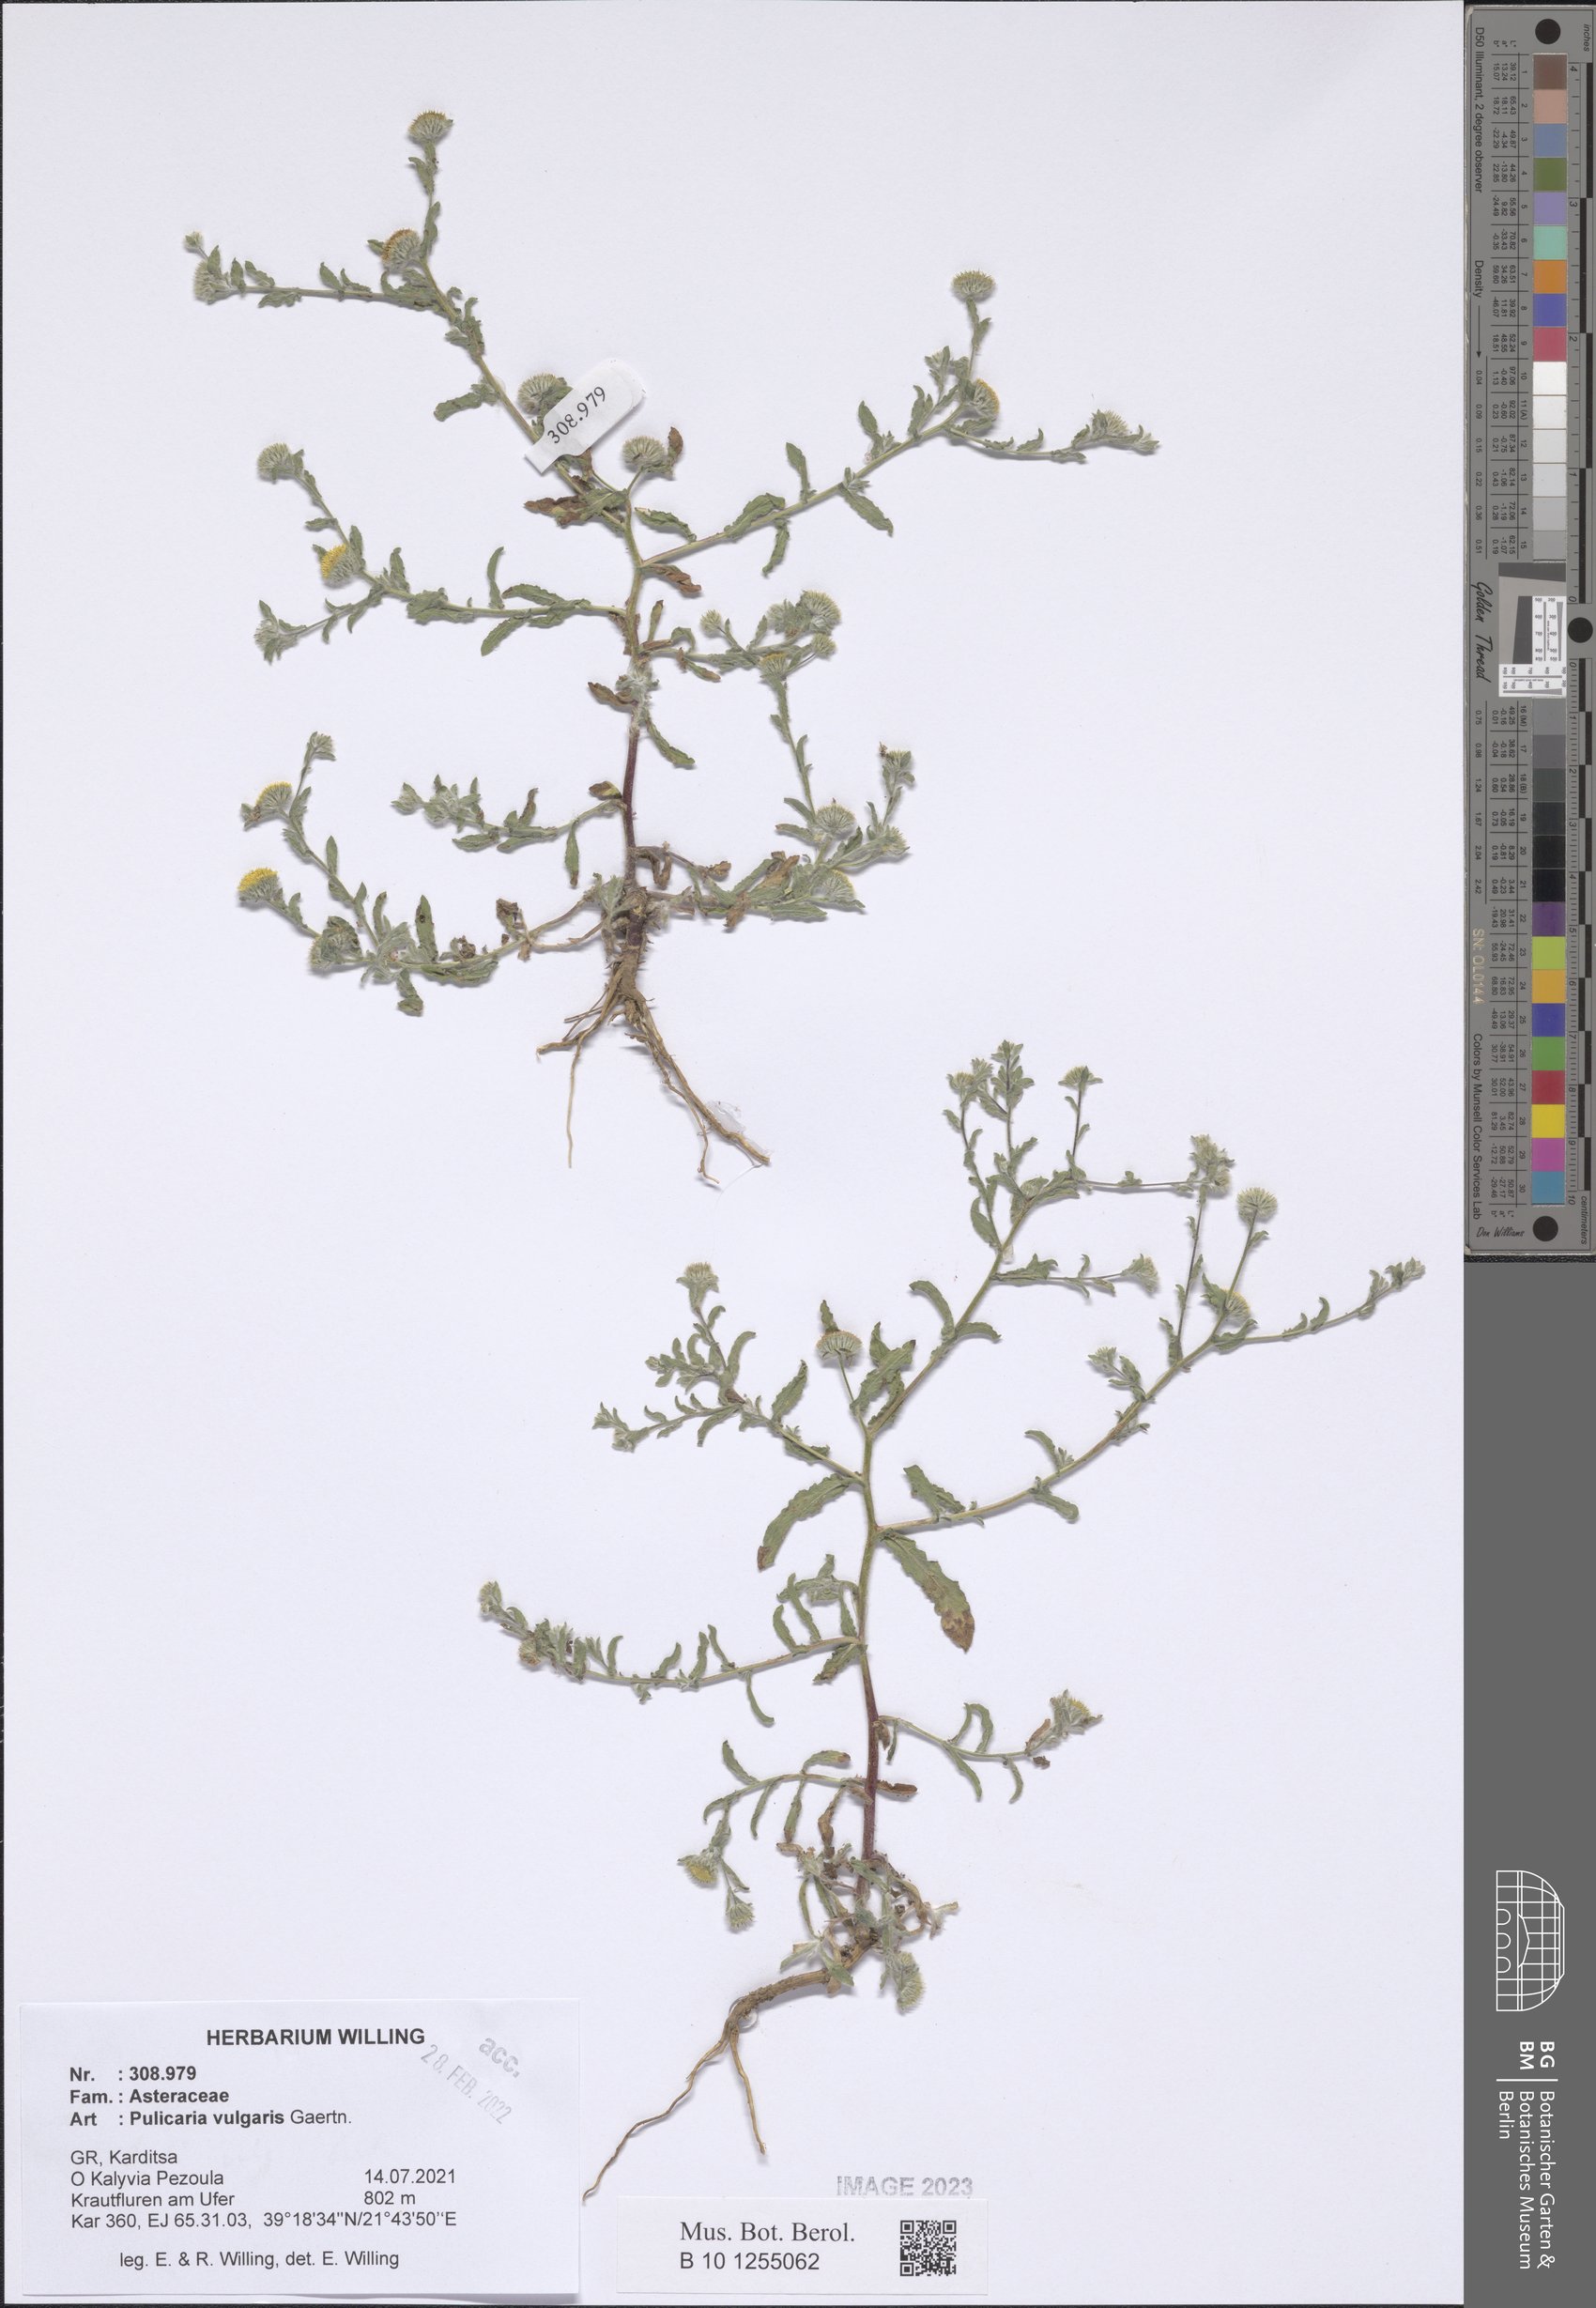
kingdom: Plantae
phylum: Tracheophyta
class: Magnoliopsida
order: Asterales
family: Asteraceae
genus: Pulicaria
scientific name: Pulicaria vulgaris
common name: Small fleabane
